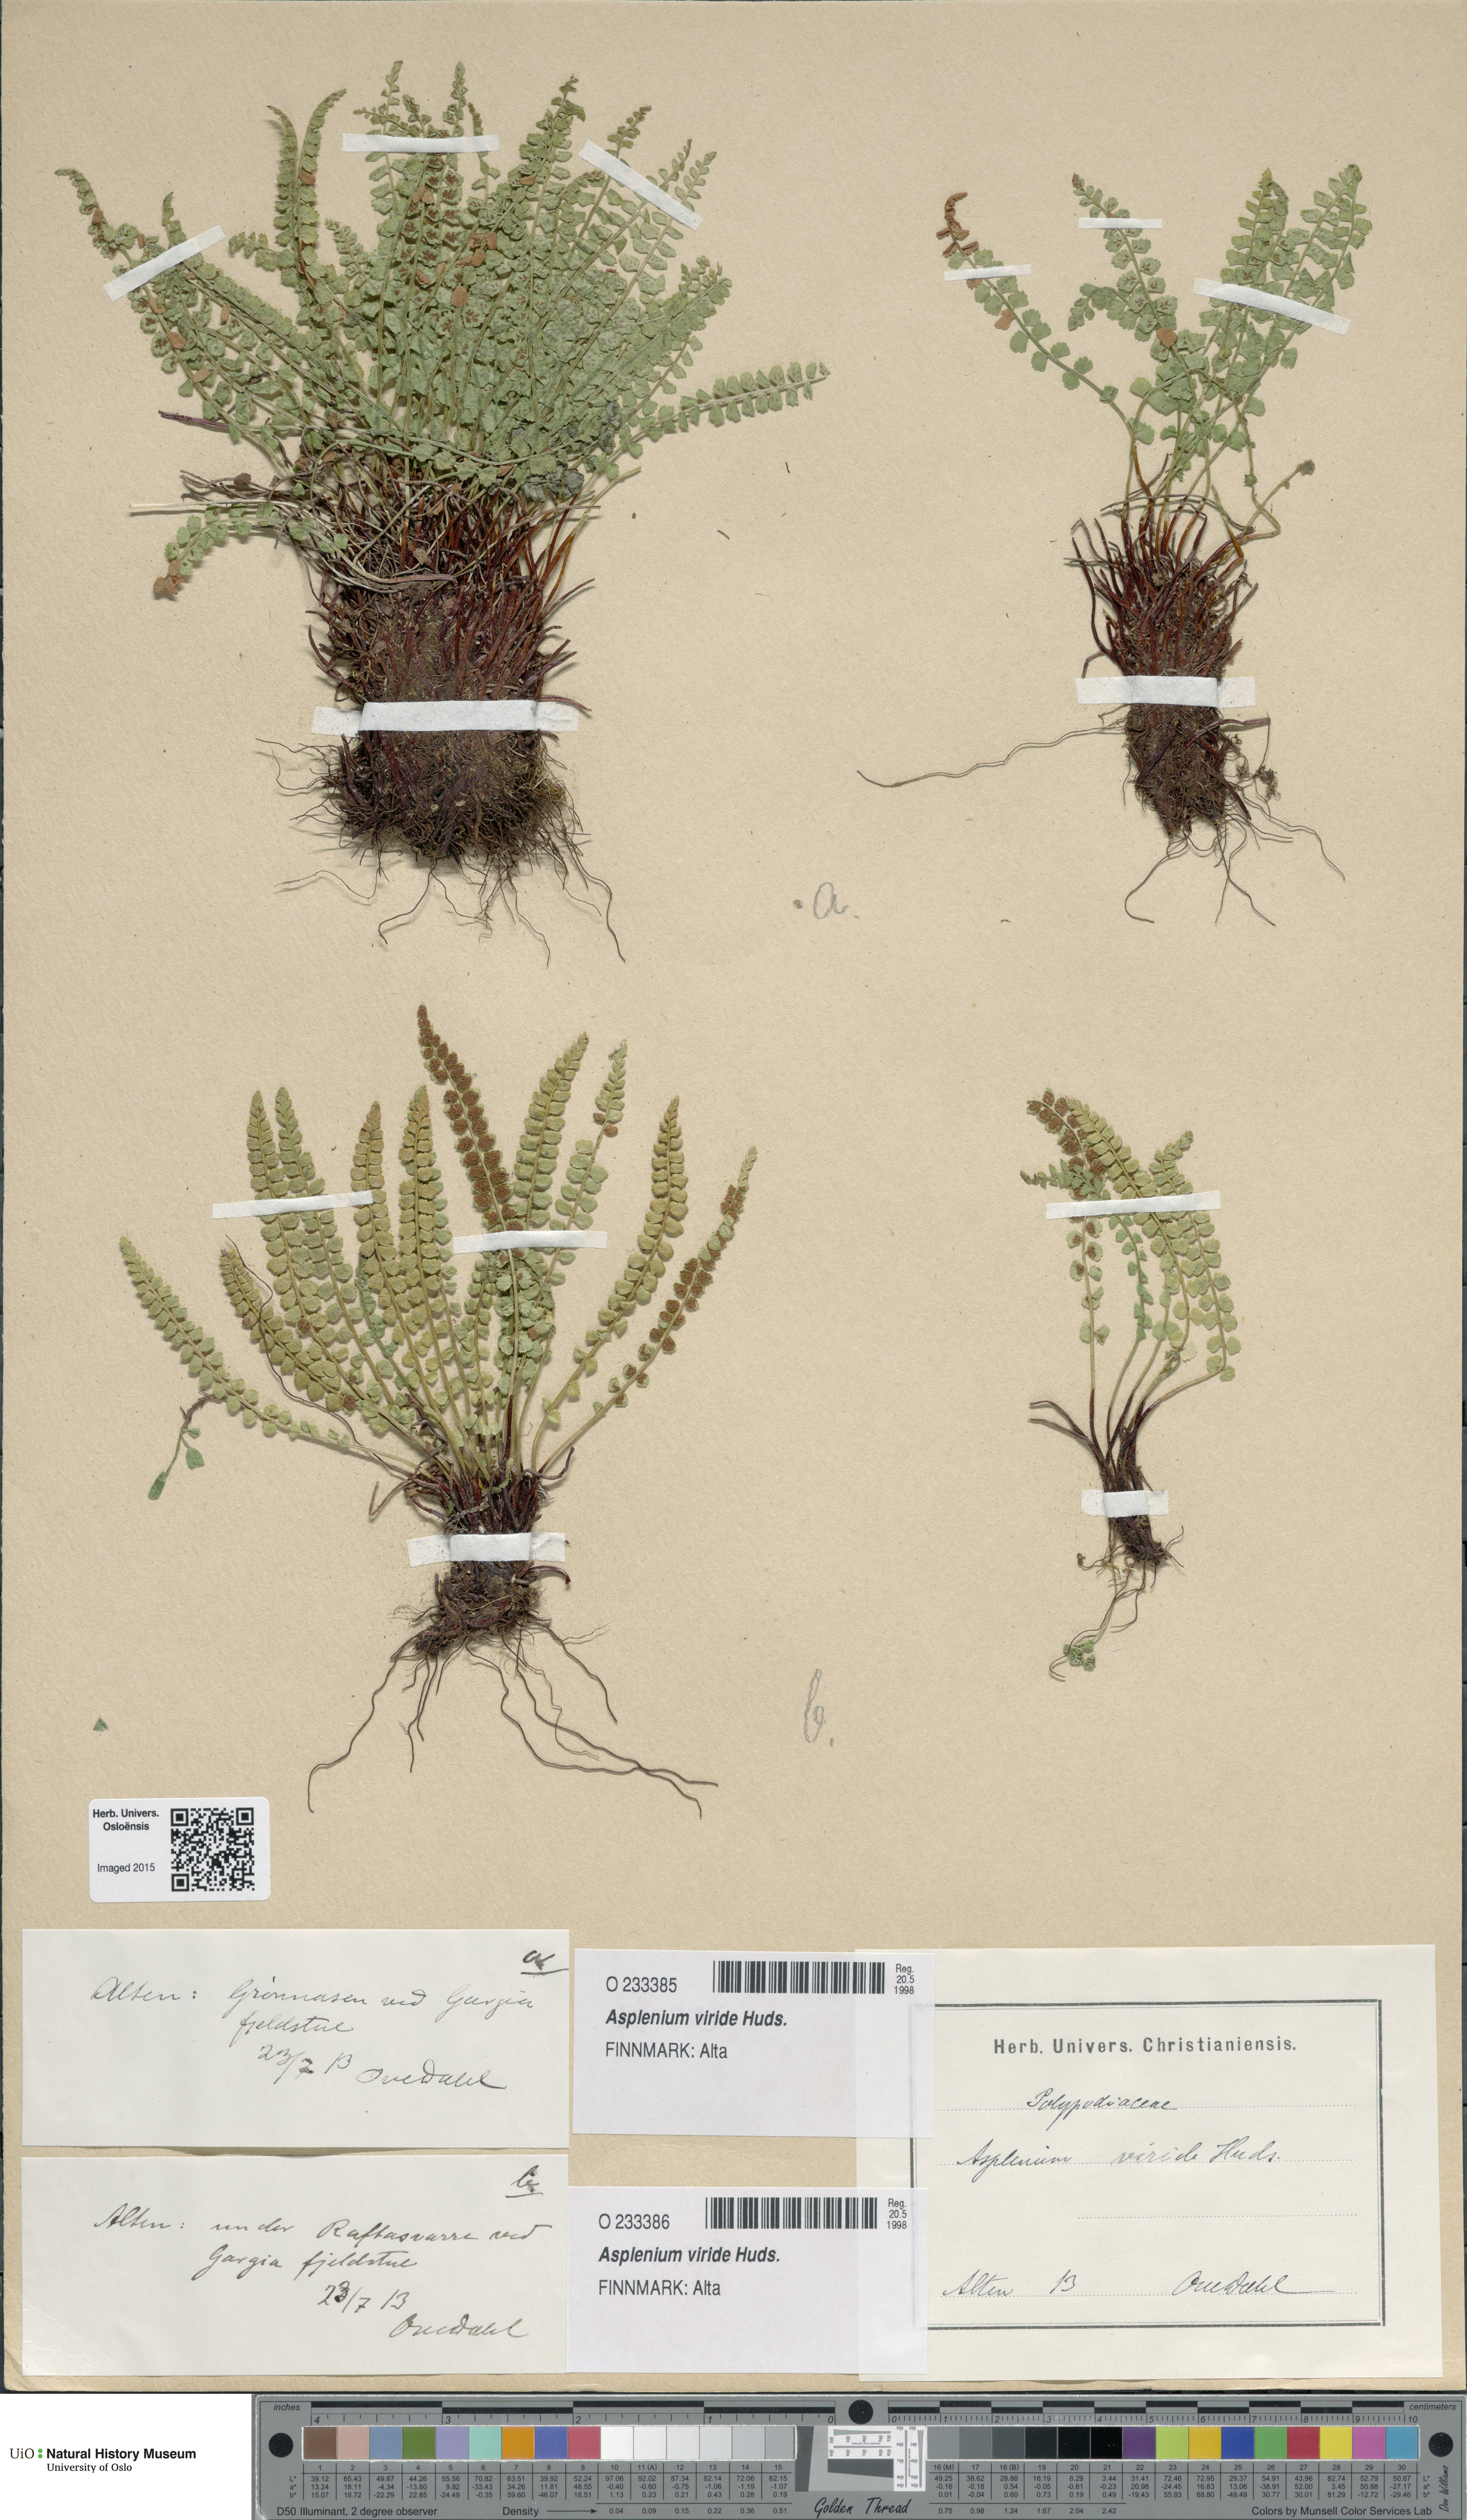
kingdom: Plantae
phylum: Tracheophyta
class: Polypodiopsida
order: Polypodiales
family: Aspleniaceae
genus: Asplenium
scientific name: Asplenium viride
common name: Green spleenwort
